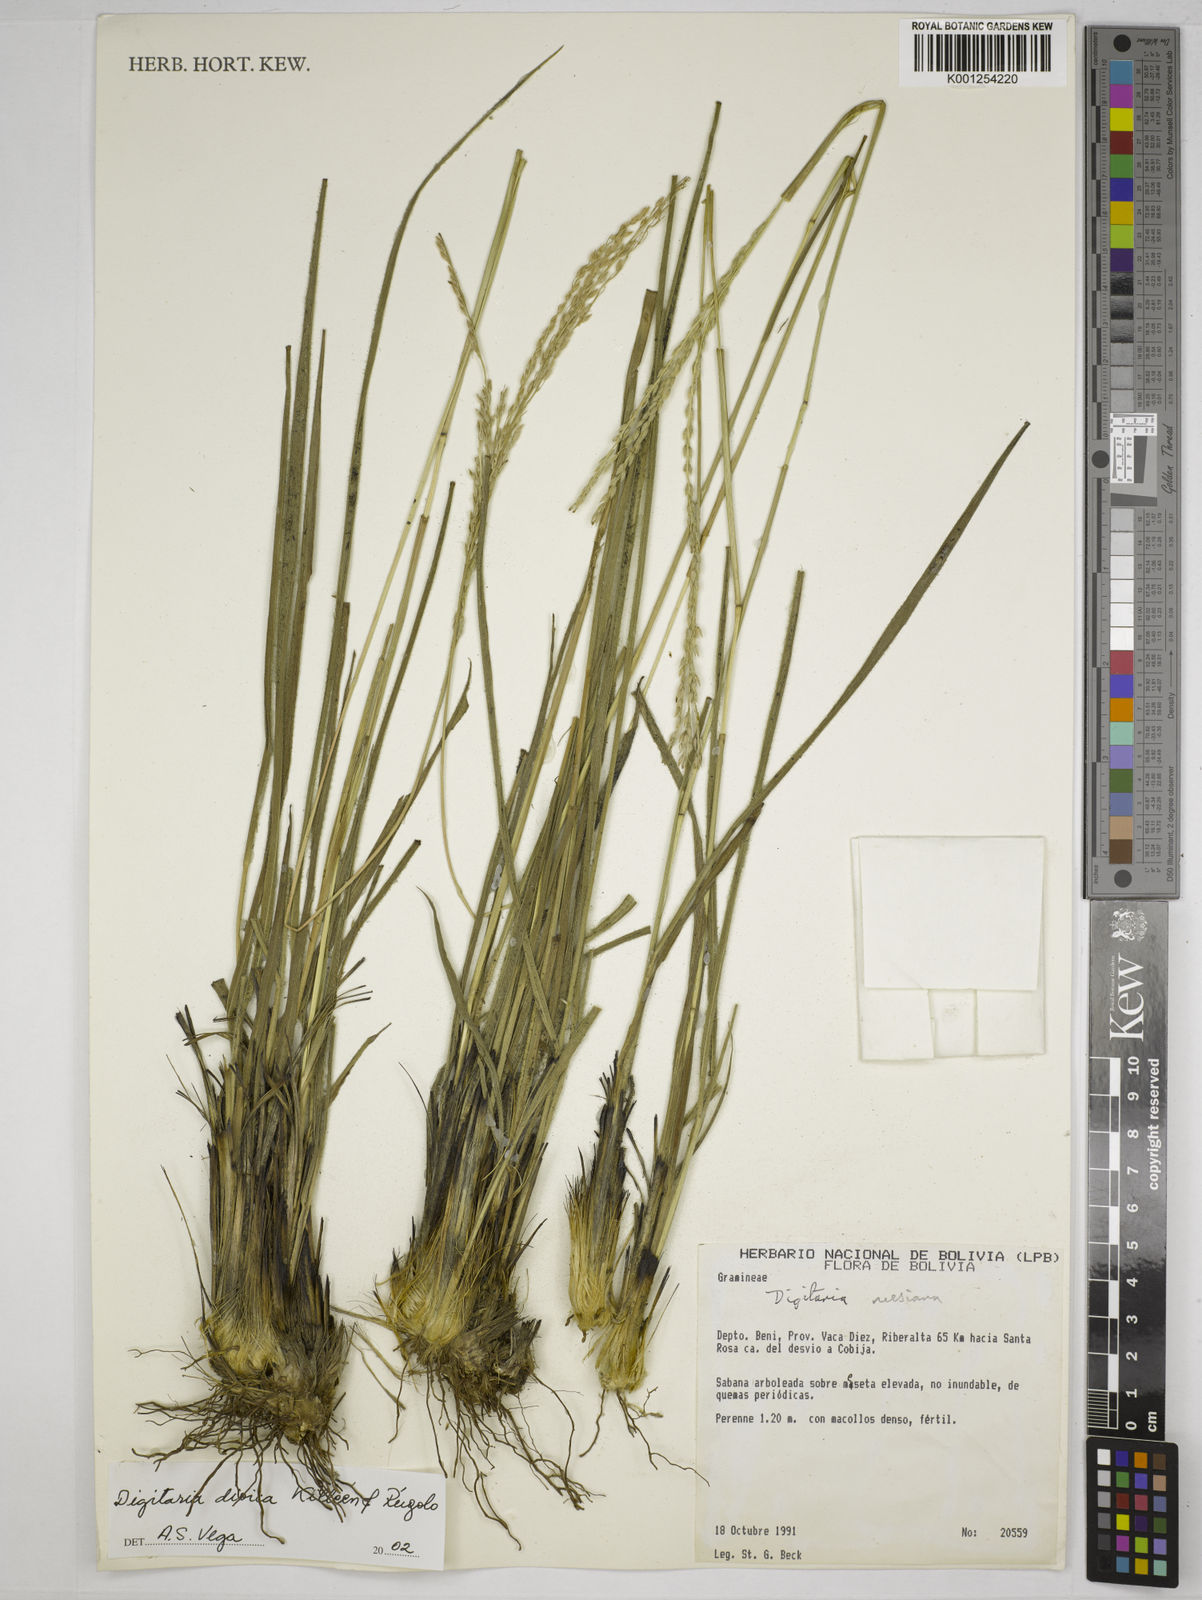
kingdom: Plantae
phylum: Tracheophyta
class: Liliopsida
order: Poales
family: Poaceae
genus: Digitaria
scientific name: Digitaria dioica
